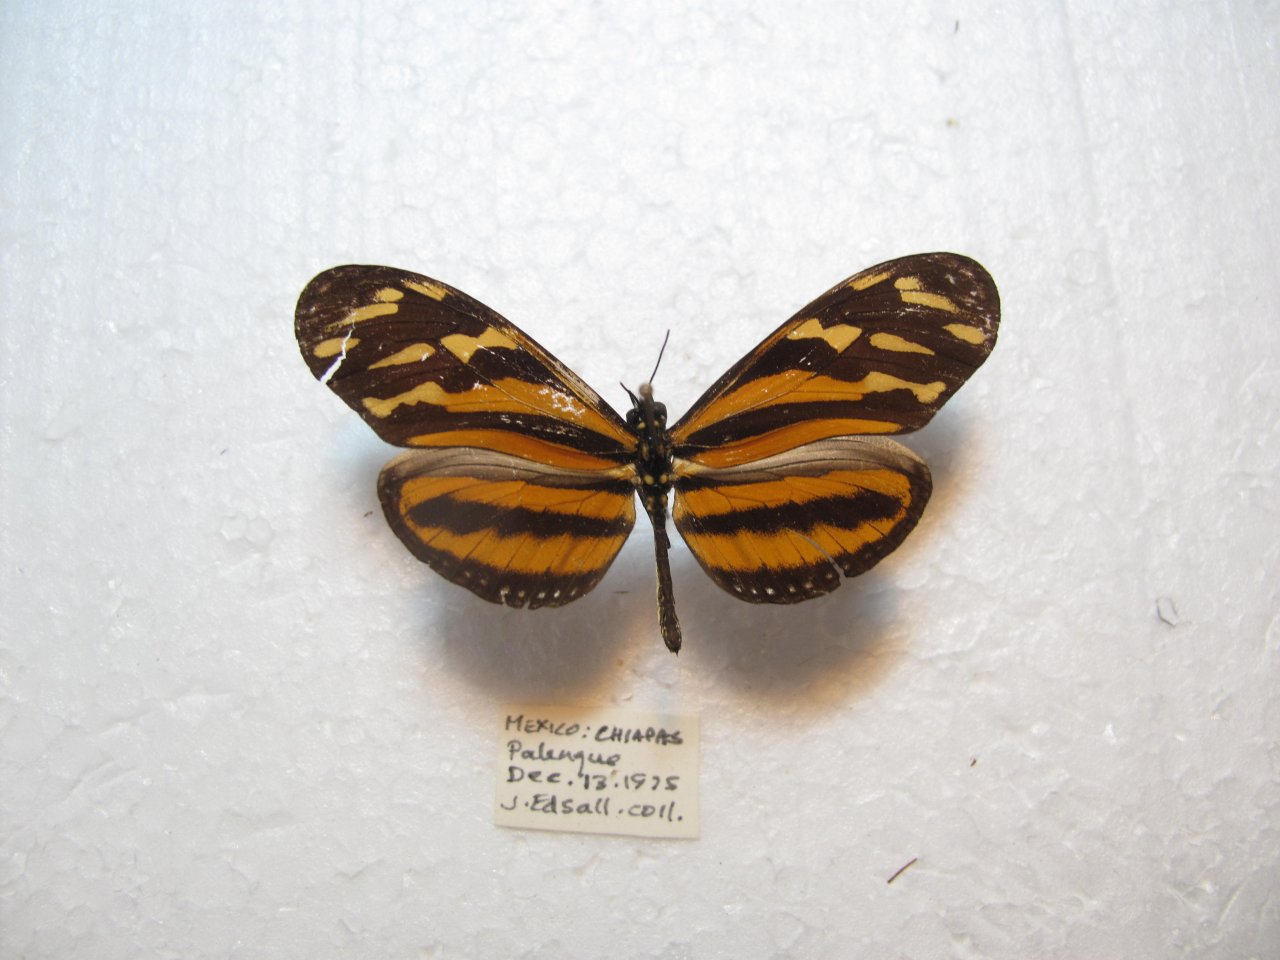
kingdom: Animalia
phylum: Arthropoda
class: Insecta
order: Lepidoptera
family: Nymphalidae
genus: Eueides
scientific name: Eueides isabella
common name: Isabella's Heliconian
